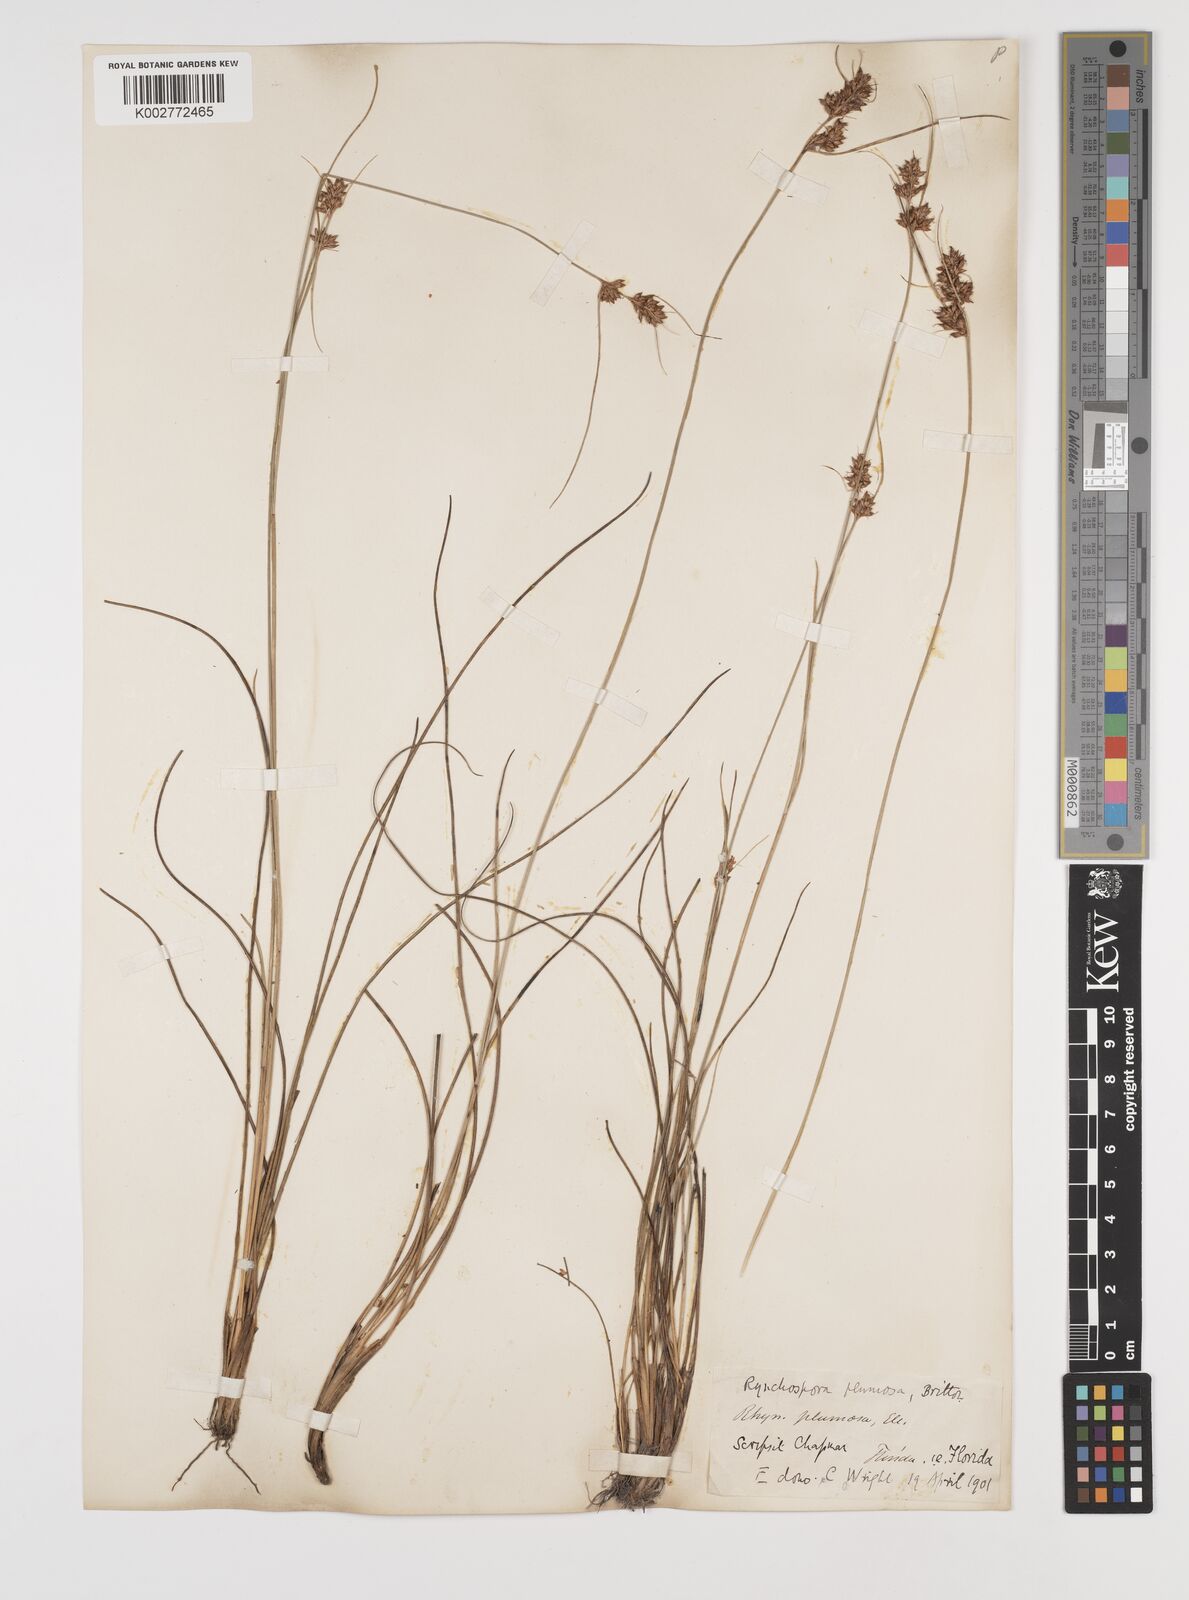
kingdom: Plantae
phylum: Tracheophyta
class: Liliopsida
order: Poales
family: Cyperaceae
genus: Rhynchospora
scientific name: Rhynchospora plumosa
